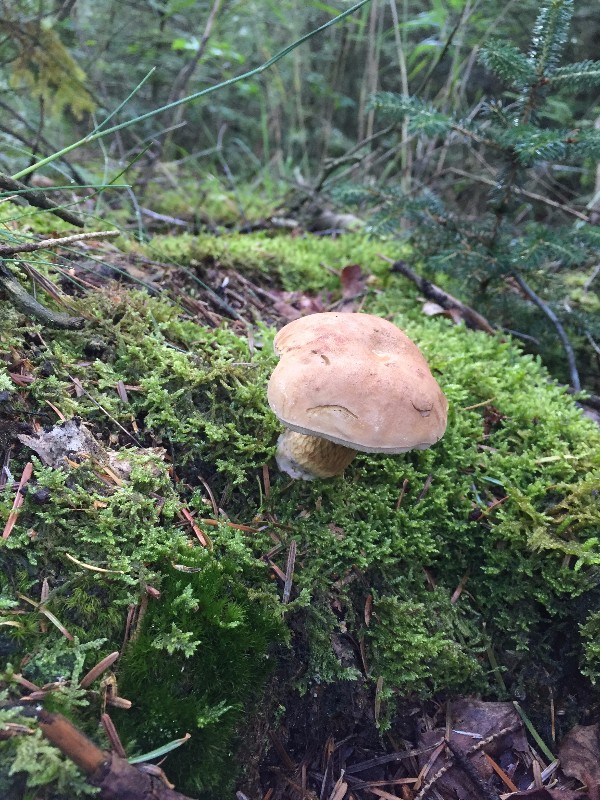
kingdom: Fungi
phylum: Basidiomycota
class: Agaricomycetes
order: Boletales
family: Boletaceae
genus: Tylopilus
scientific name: Tylopilus felleus
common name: galderørhat
